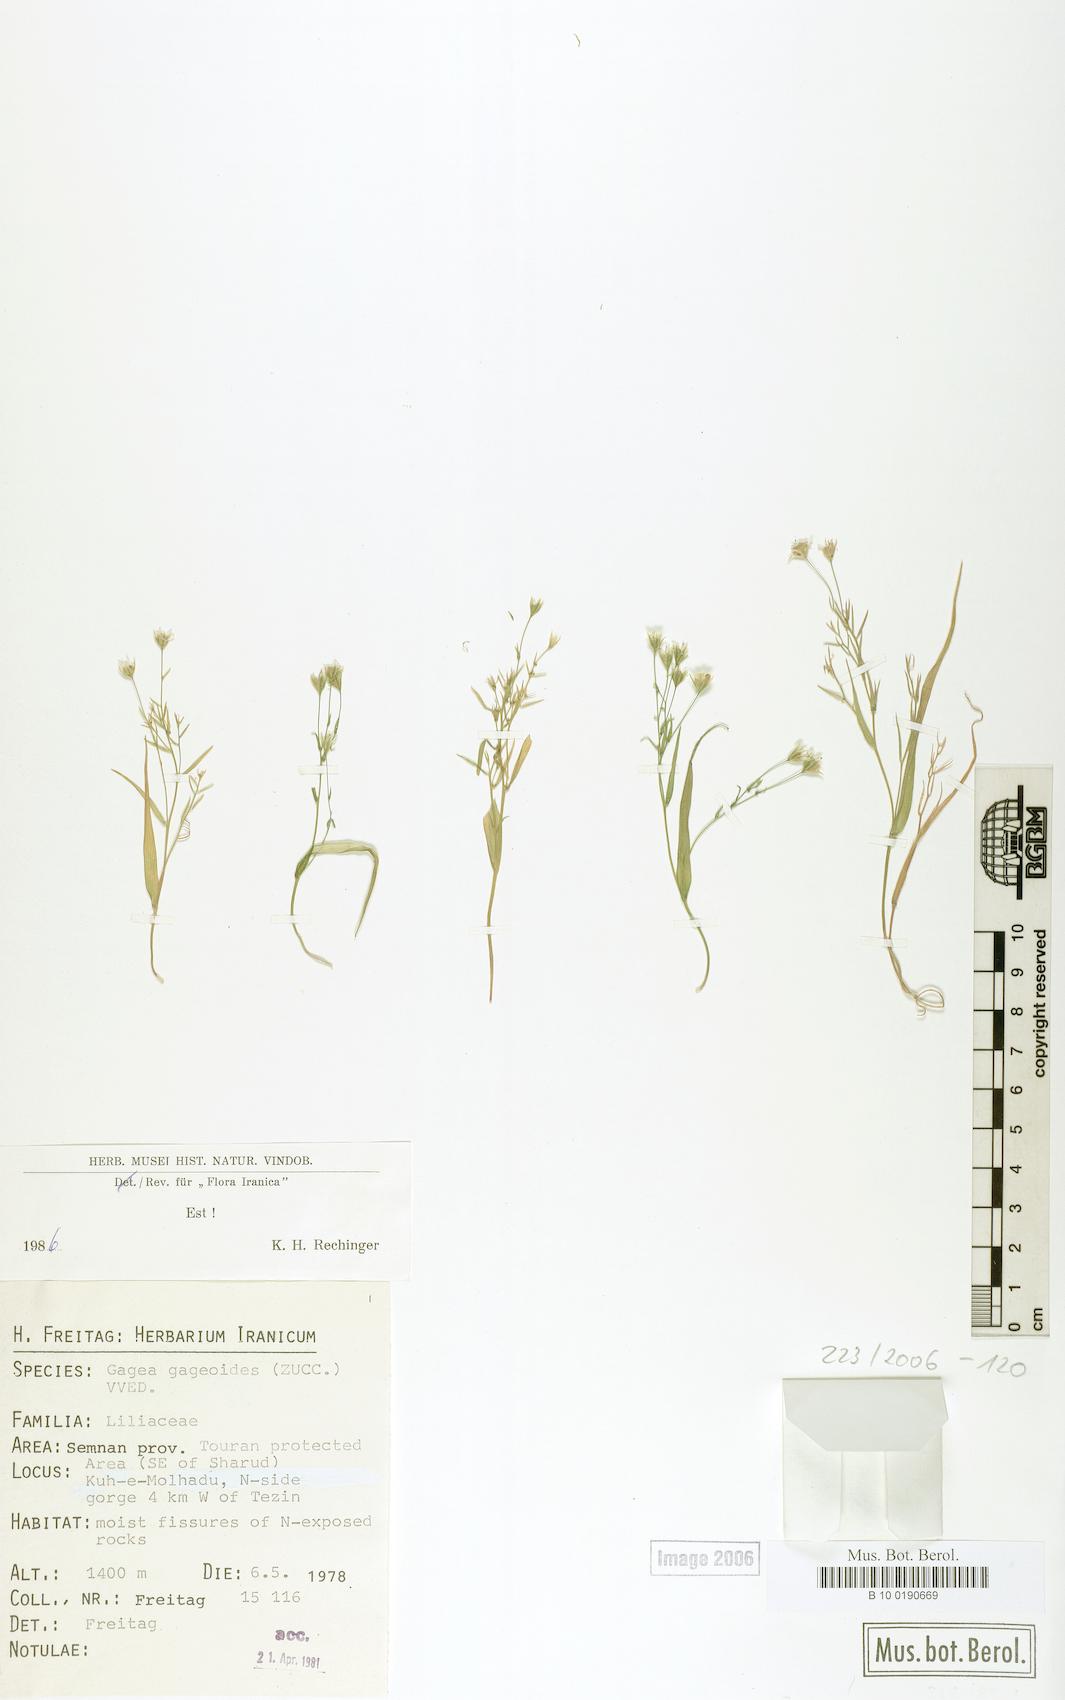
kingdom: Plantae
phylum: Tracheophyta
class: Liliopsida
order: Liliales
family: Liliaceae
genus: Gagea
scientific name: Gagea gageoides
